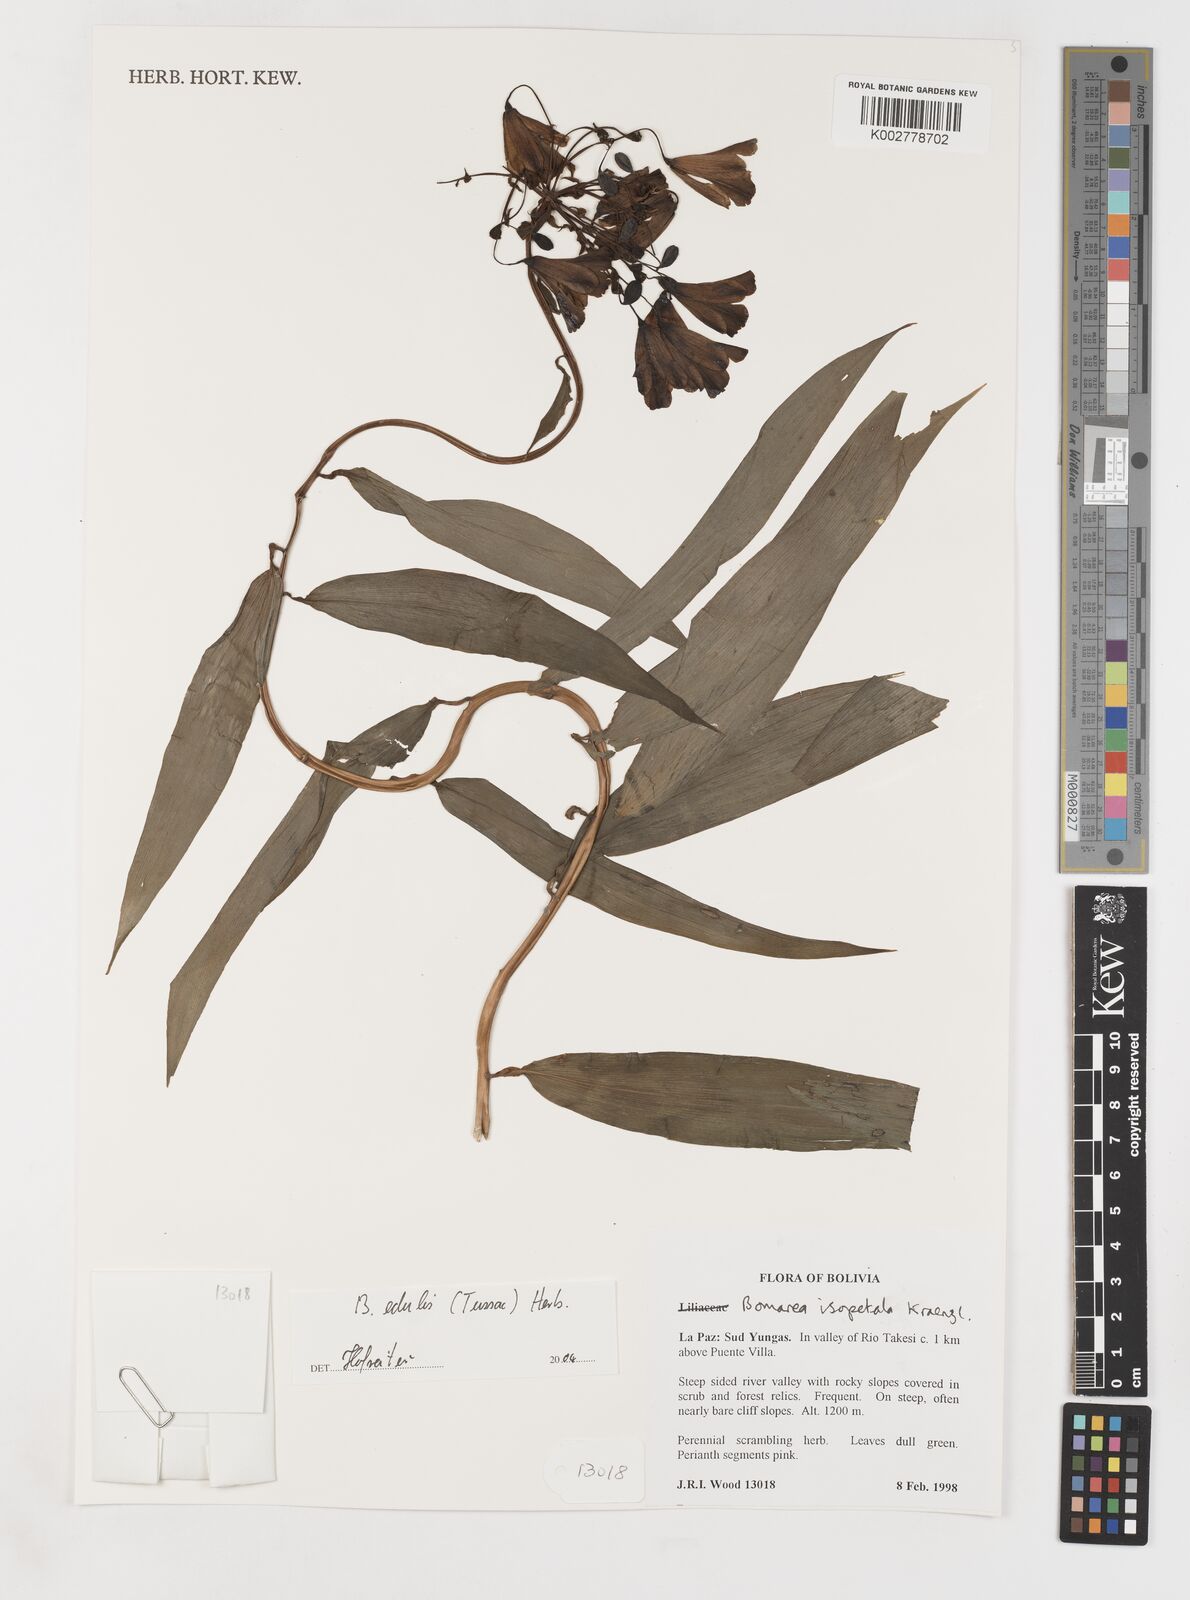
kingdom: Plantae
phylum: Tracheophyta
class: Liliopsida
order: Liliales
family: Alstroemeriaceae
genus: Bomarea
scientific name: Bomarea edulis
